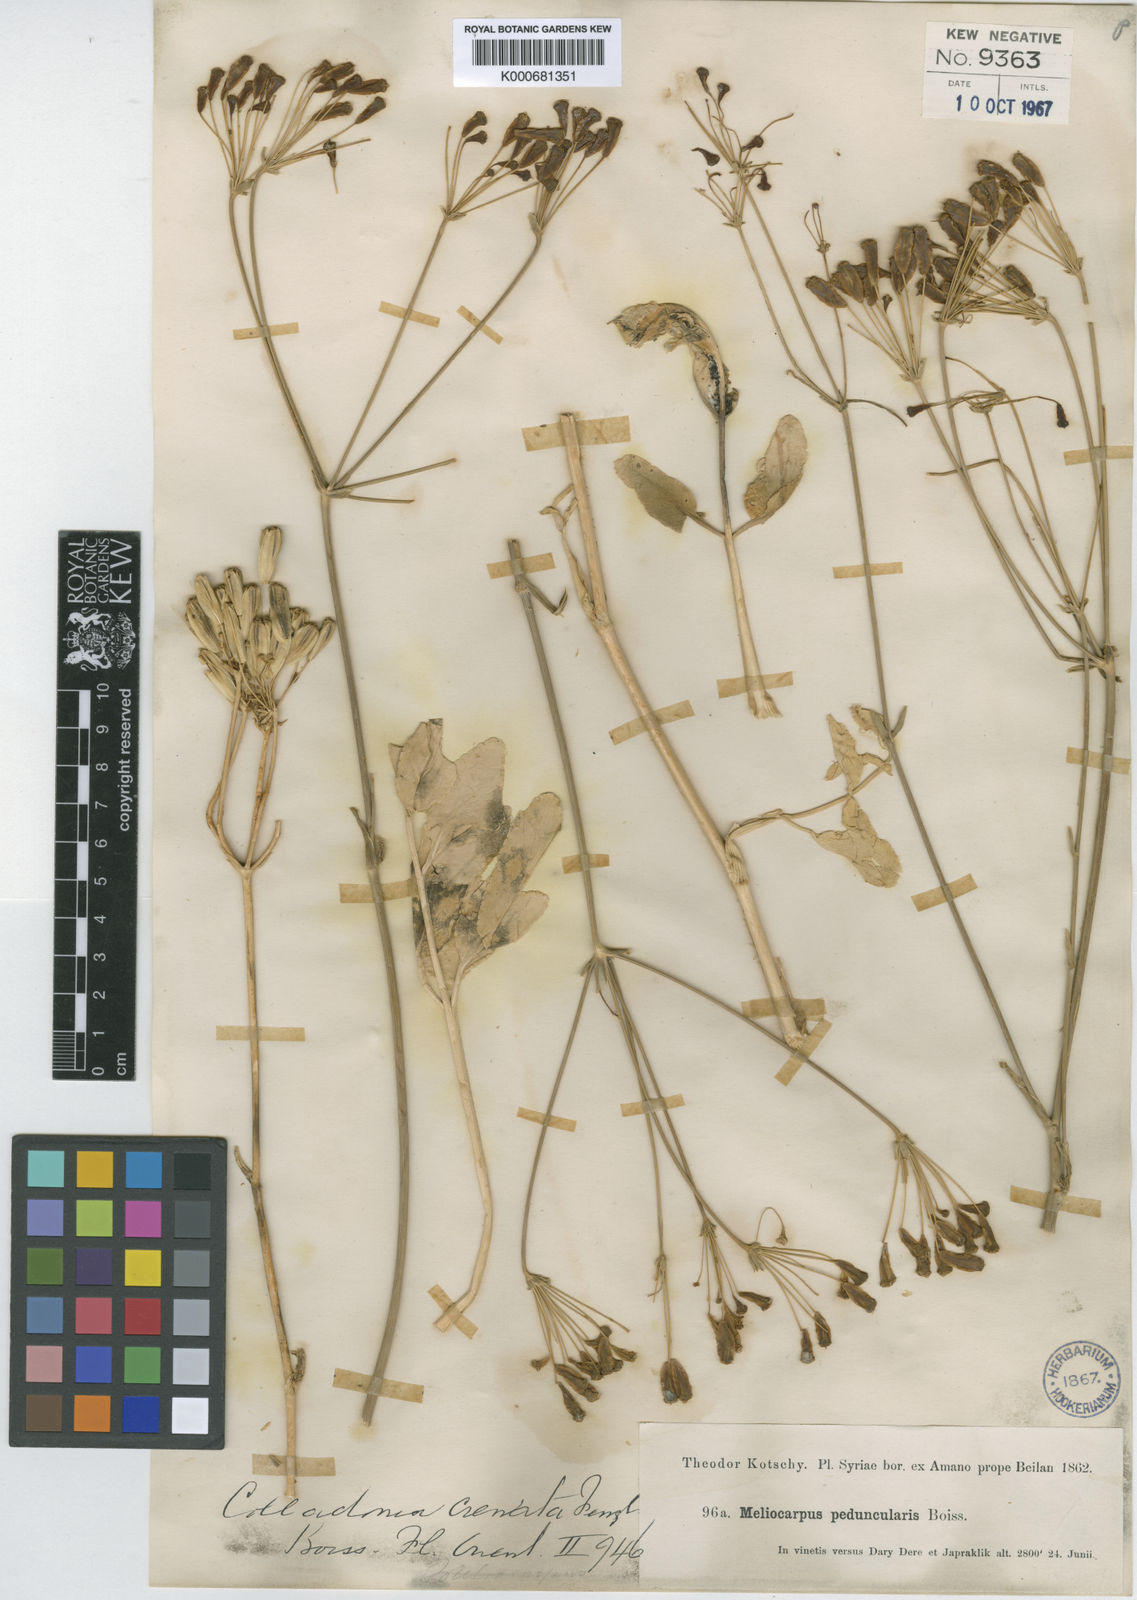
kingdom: Plantae
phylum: Tracheophyta
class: Magnoliopsida
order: Apiales
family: Apiaceae
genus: Heptaptera
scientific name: Heptaptera anisoptera
